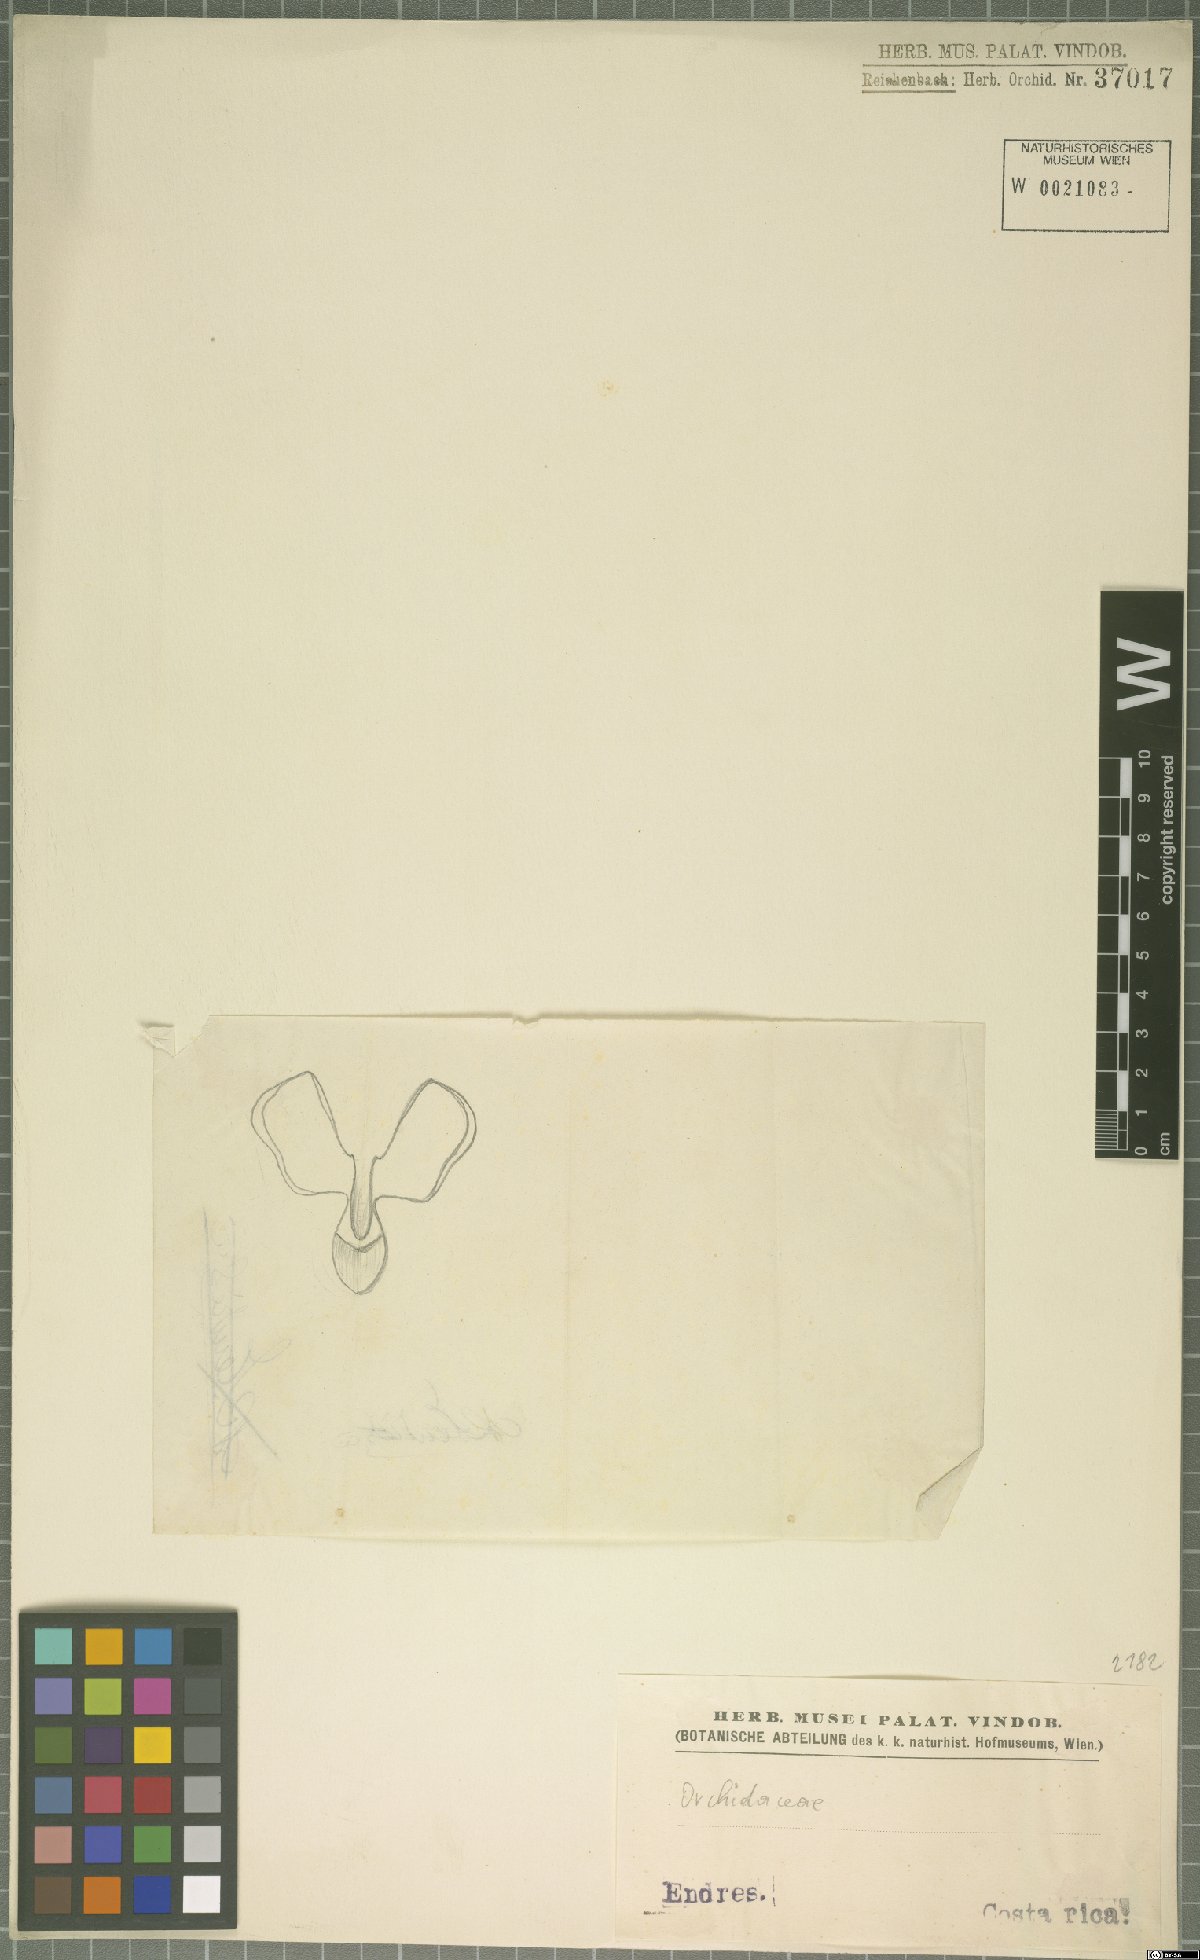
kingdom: Plantae
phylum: Tracheophyta
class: Liliopsida
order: Asparagales
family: Orchidaceae
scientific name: Orchidaceae
